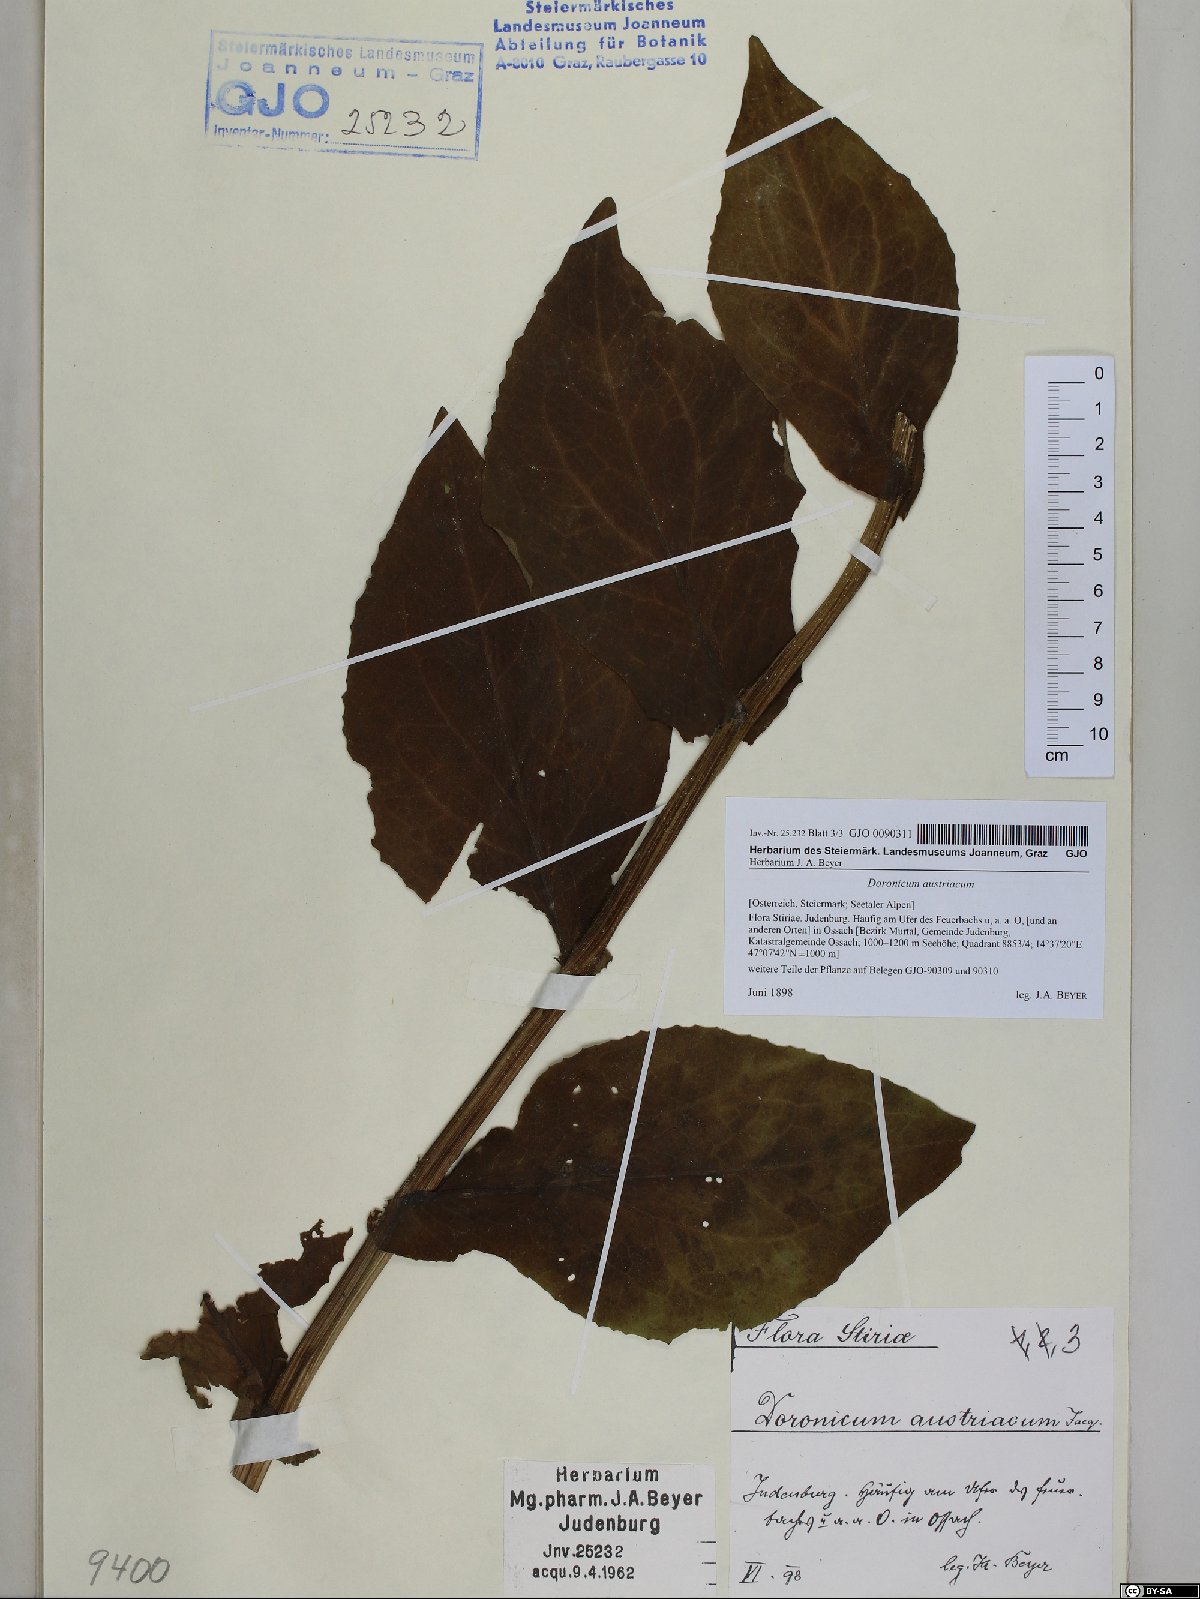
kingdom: Plantae
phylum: Tracheophyta
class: Magnoliopsida
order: Asterales
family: Asteraceae
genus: Doronicum
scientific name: Doronicum austriacum
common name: Austrian leopard's-bane
